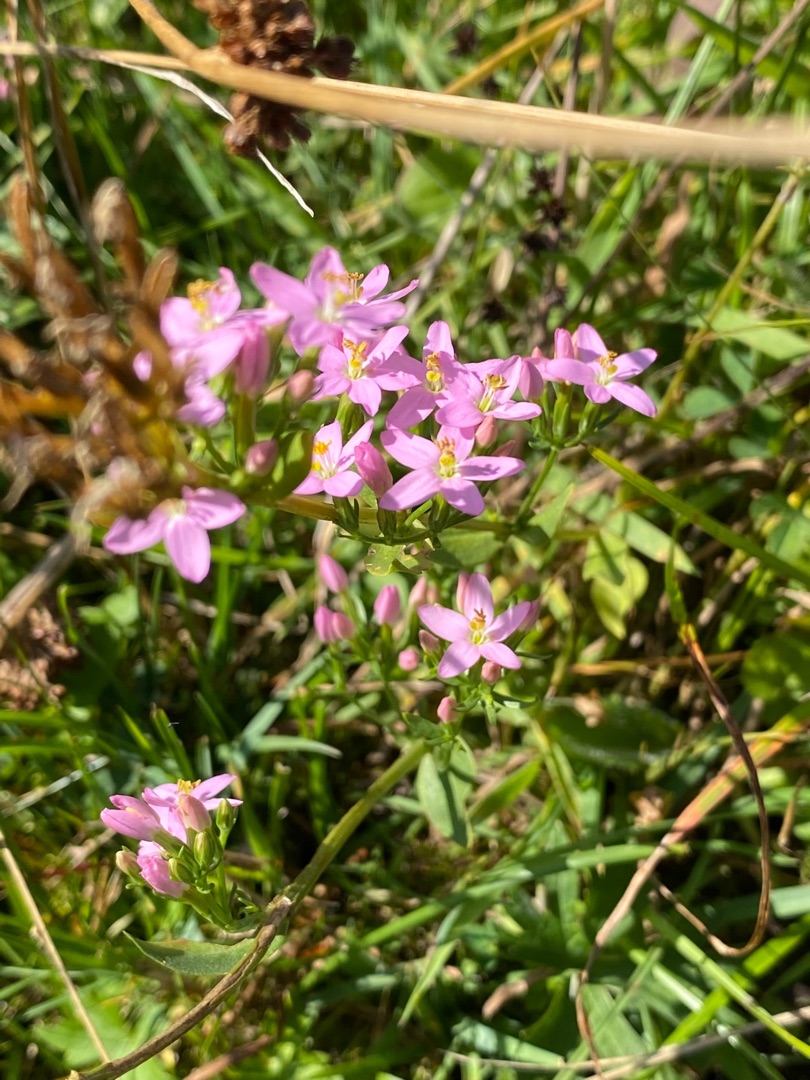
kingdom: Plantae
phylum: Tracheophyta
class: Magnoliopsida
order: Gentianales
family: Gentianaceae
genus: Centaurium
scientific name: Centaurium erythraea
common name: Mark-tusindgylden
